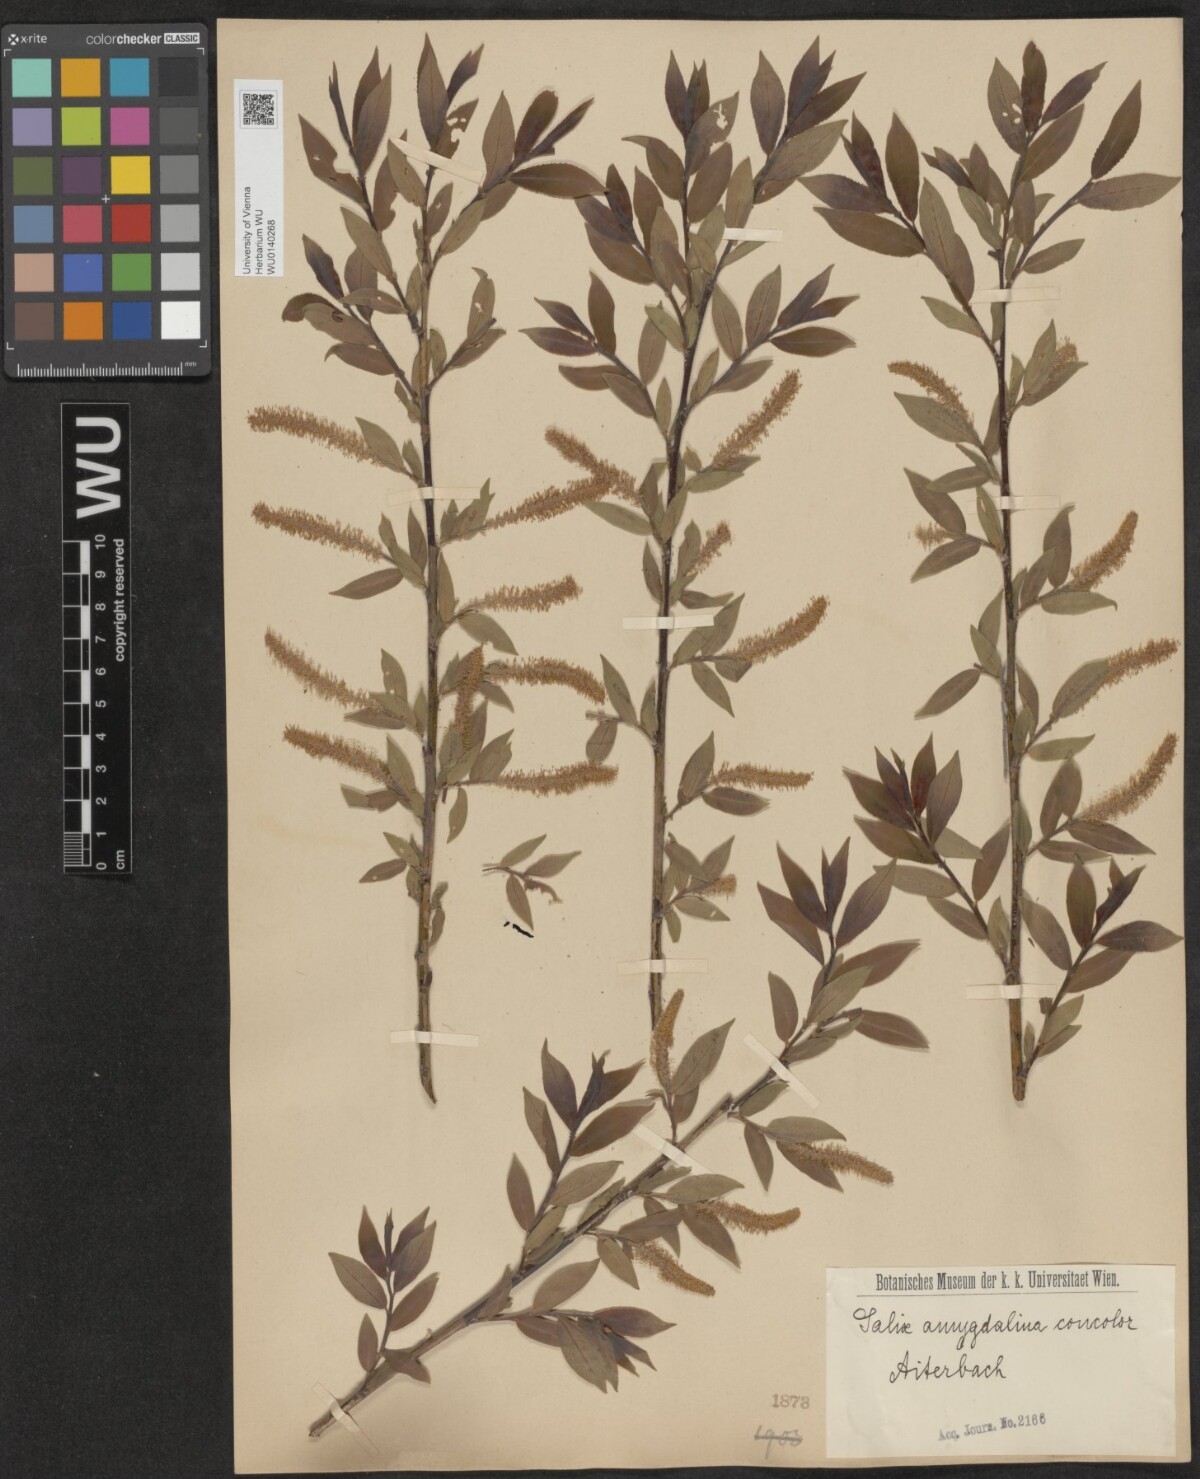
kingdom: Plantae
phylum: Tracheophyta
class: Magnoliopsida
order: Malpighiales
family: Salicaceae
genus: Salix
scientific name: Salix triandra
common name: Almond willow
